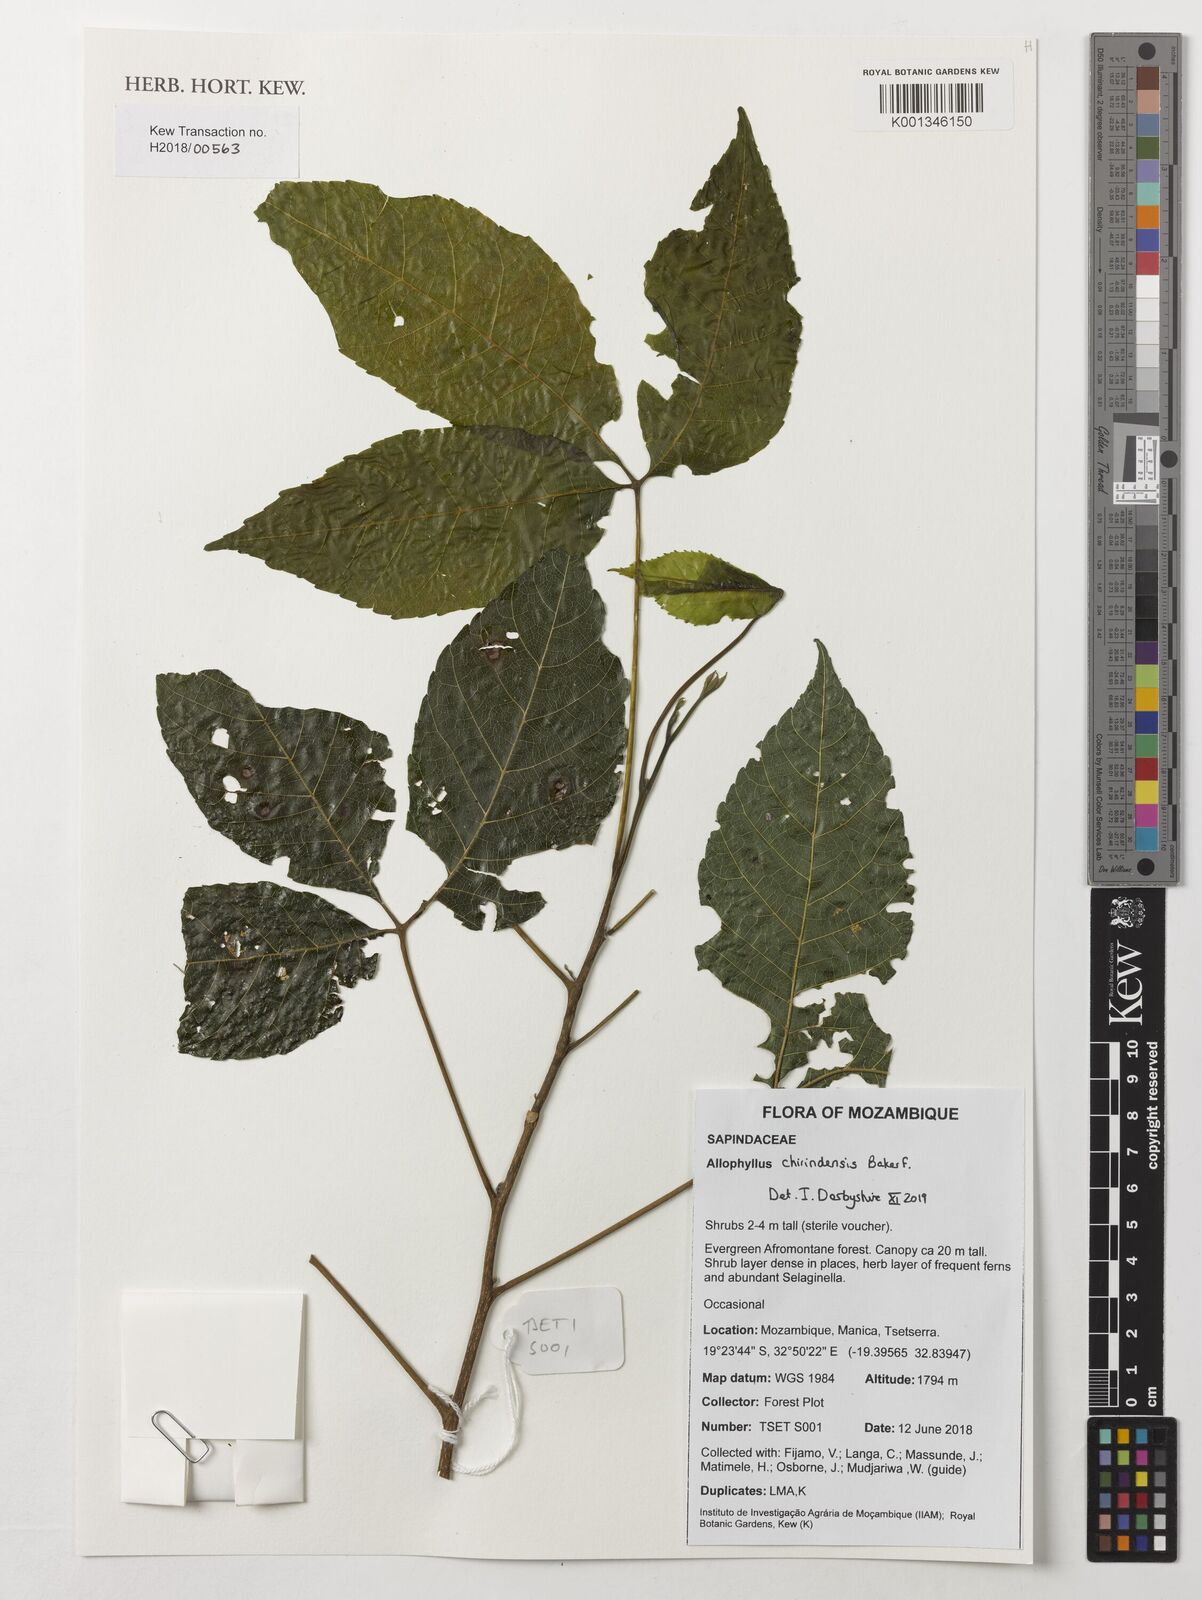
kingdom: Plantae
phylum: Tracheophyta
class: Magnoliopsida
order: Sapindales
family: Sapindaceae
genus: Allophylus
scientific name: Allophylus chirindensis
